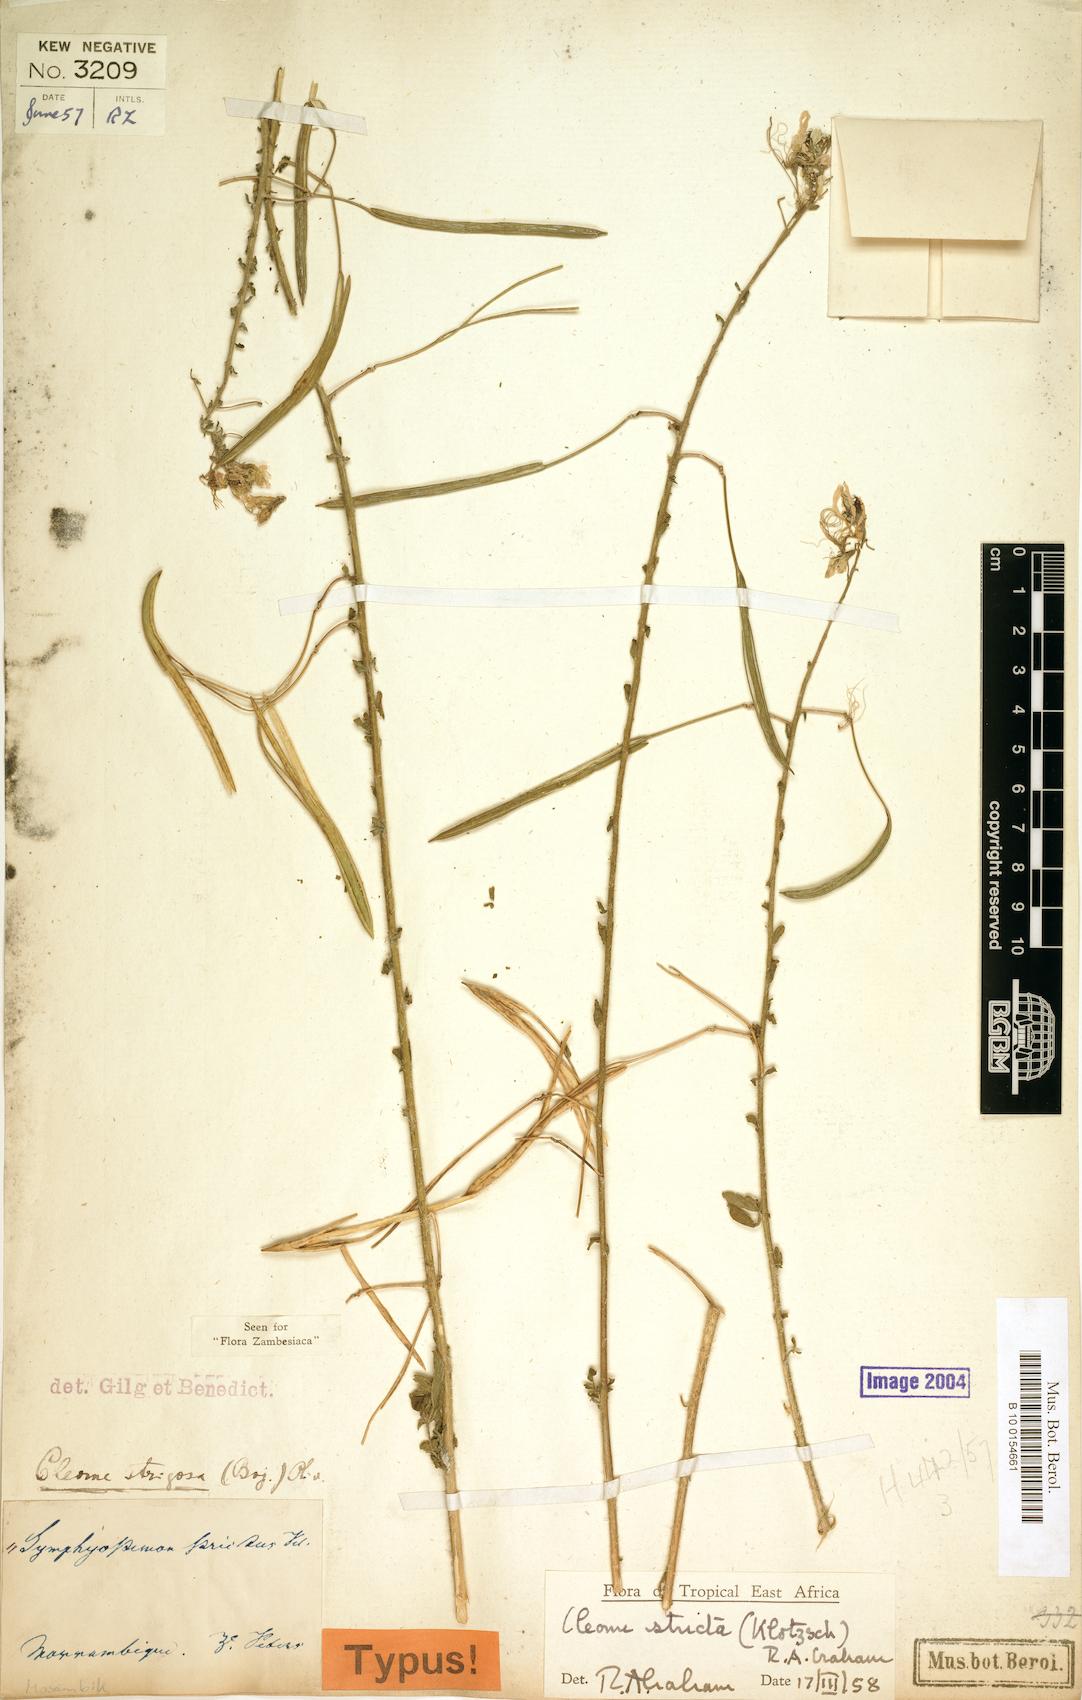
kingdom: Plantae
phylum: Tracheophyta
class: Magnoliopsida
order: Brassicales
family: Cleomaceae
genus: Sieruela
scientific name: Sieruela stricta
